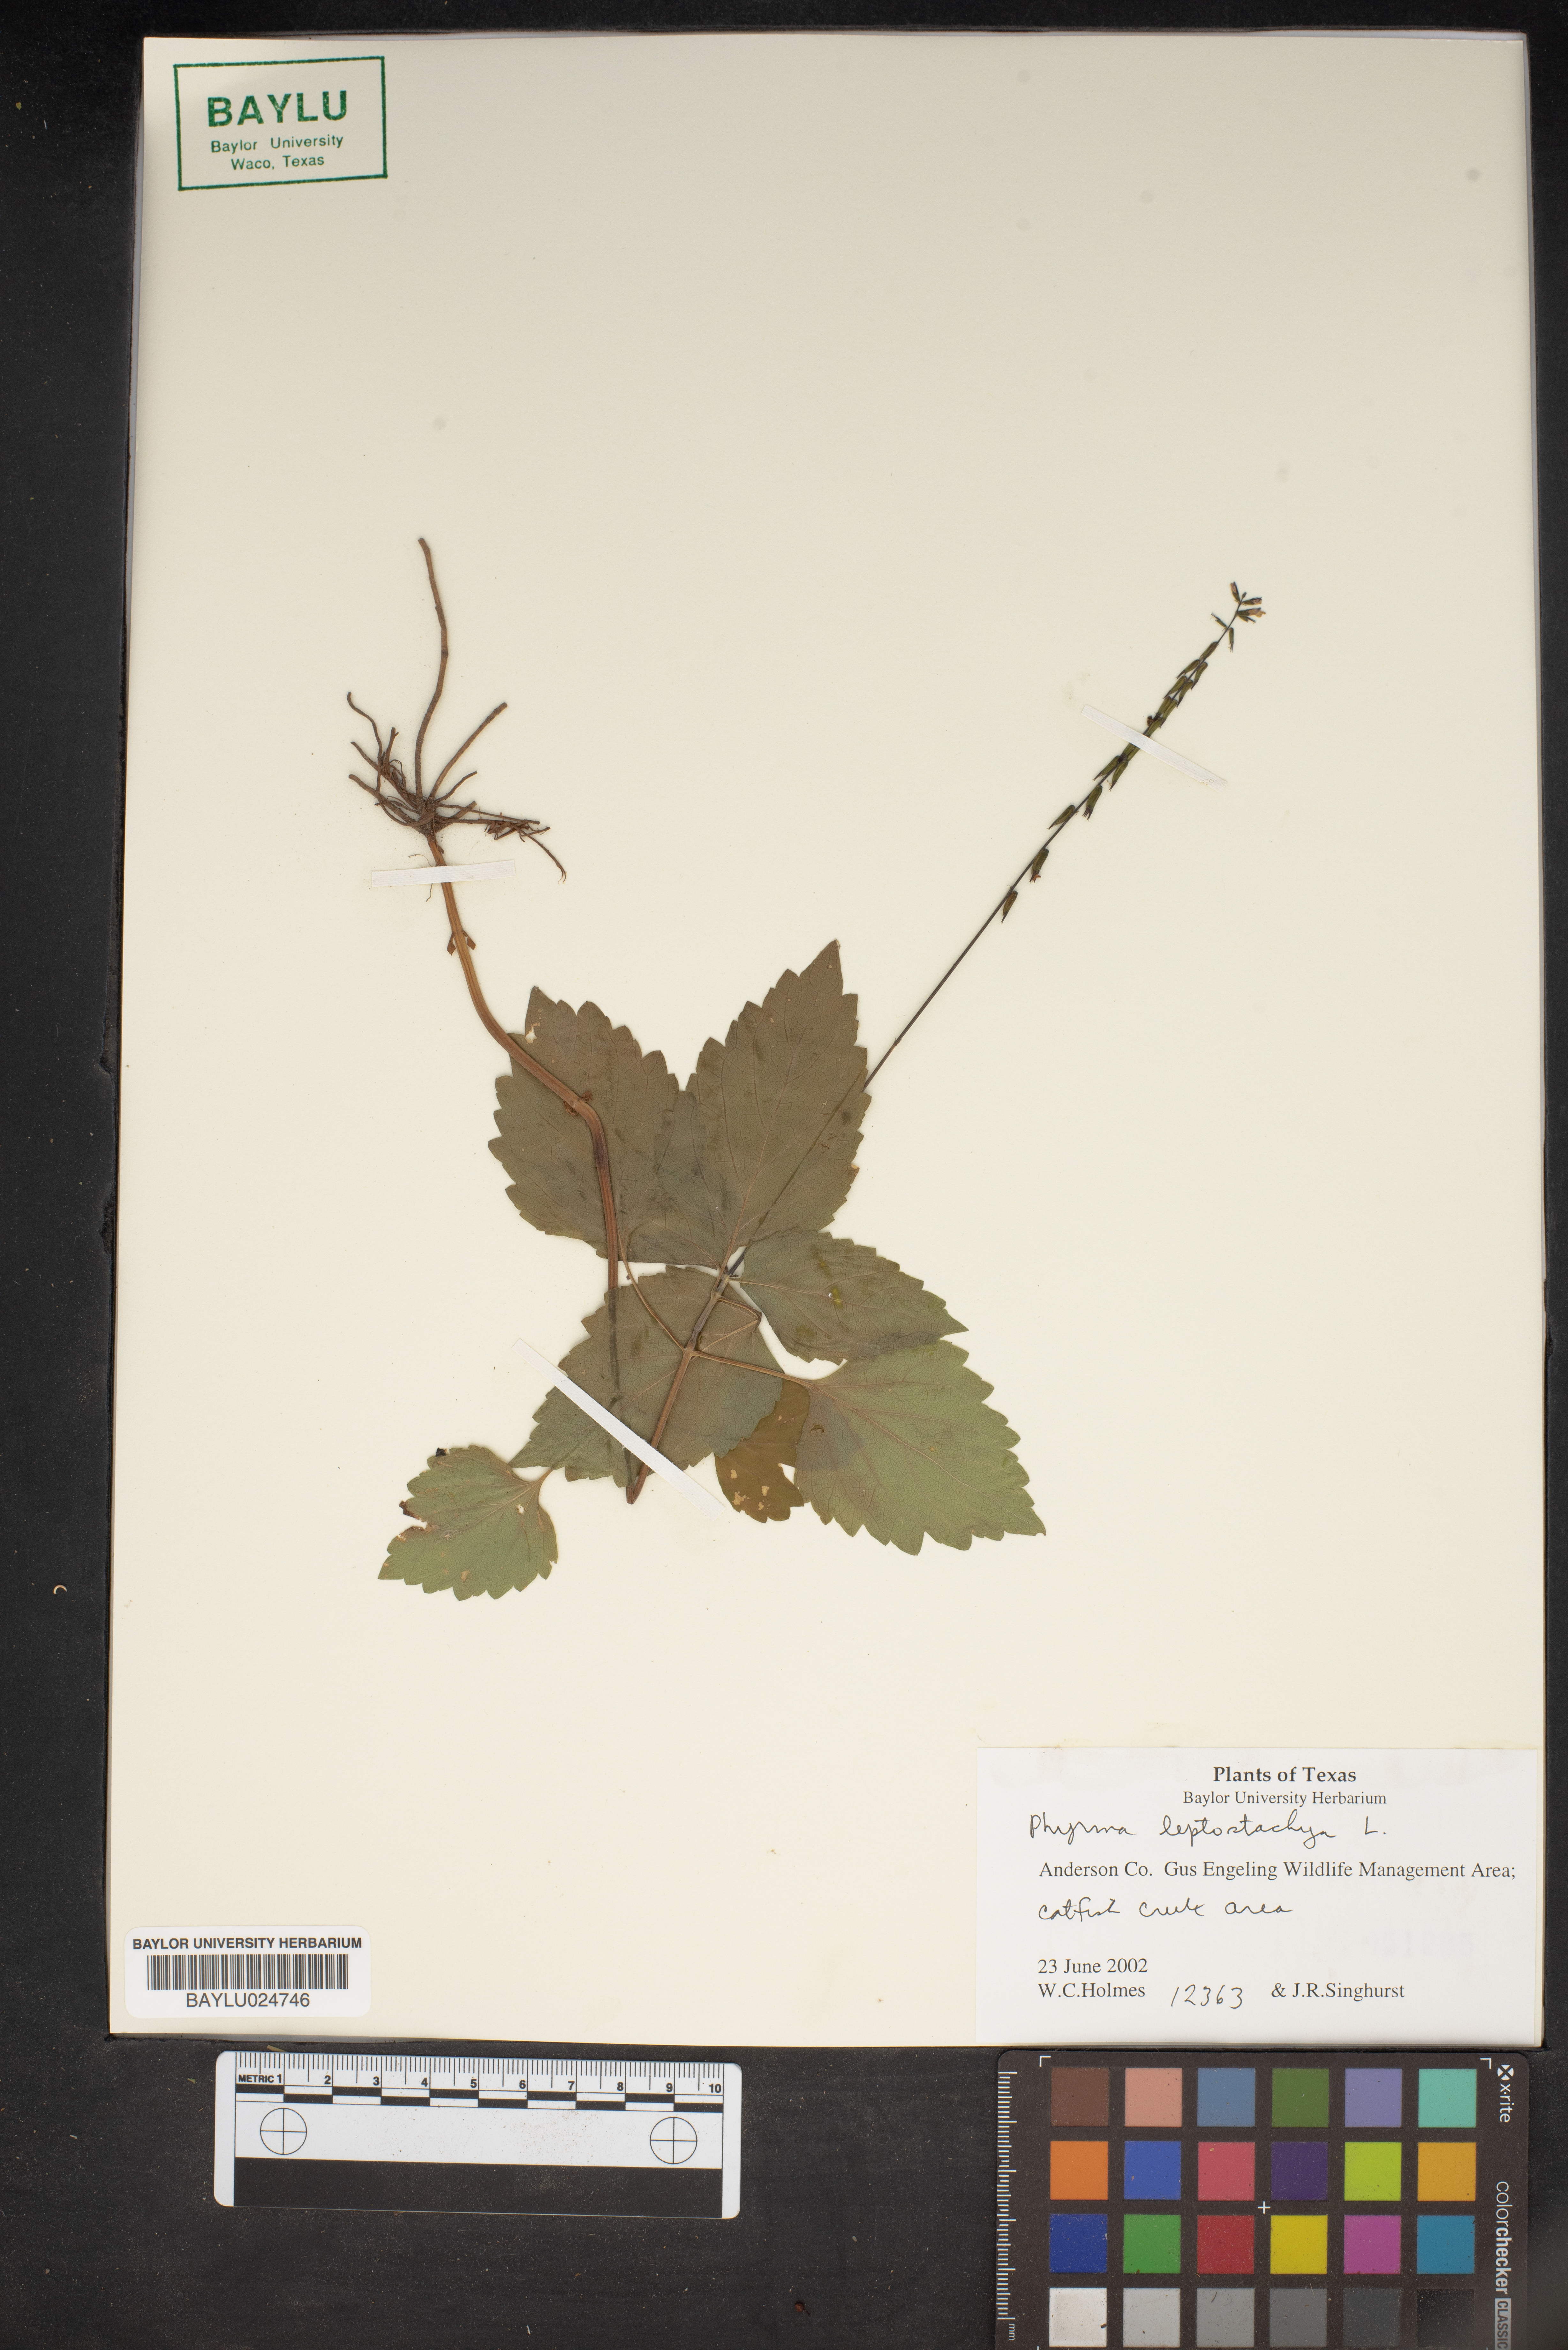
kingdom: Plantae
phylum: Tracheophyta
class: Magnoliopsida
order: Lamiales
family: Phrymaceae
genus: Phryma
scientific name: Phryma leptostachya
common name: American lopseed
